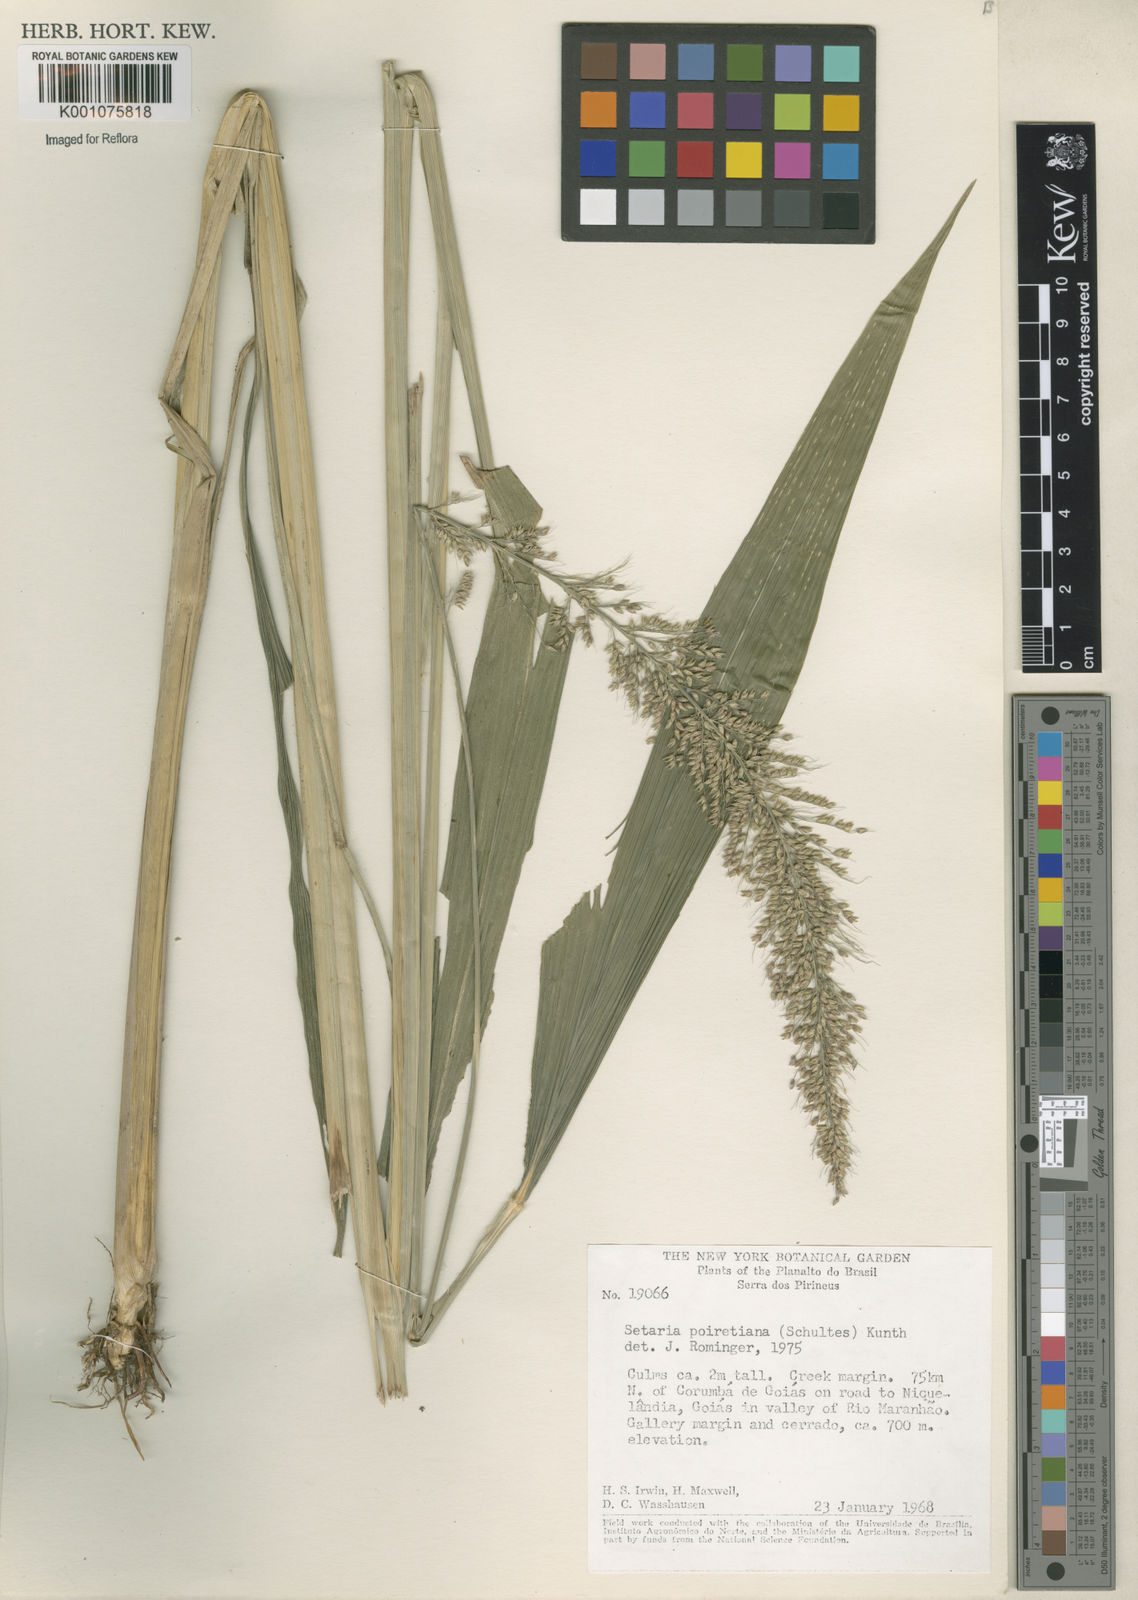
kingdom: Plantae
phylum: Tracheophyta
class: Liliopsida
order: Poales
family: Poaceae
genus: Setaria
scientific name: Setaria sulcata
